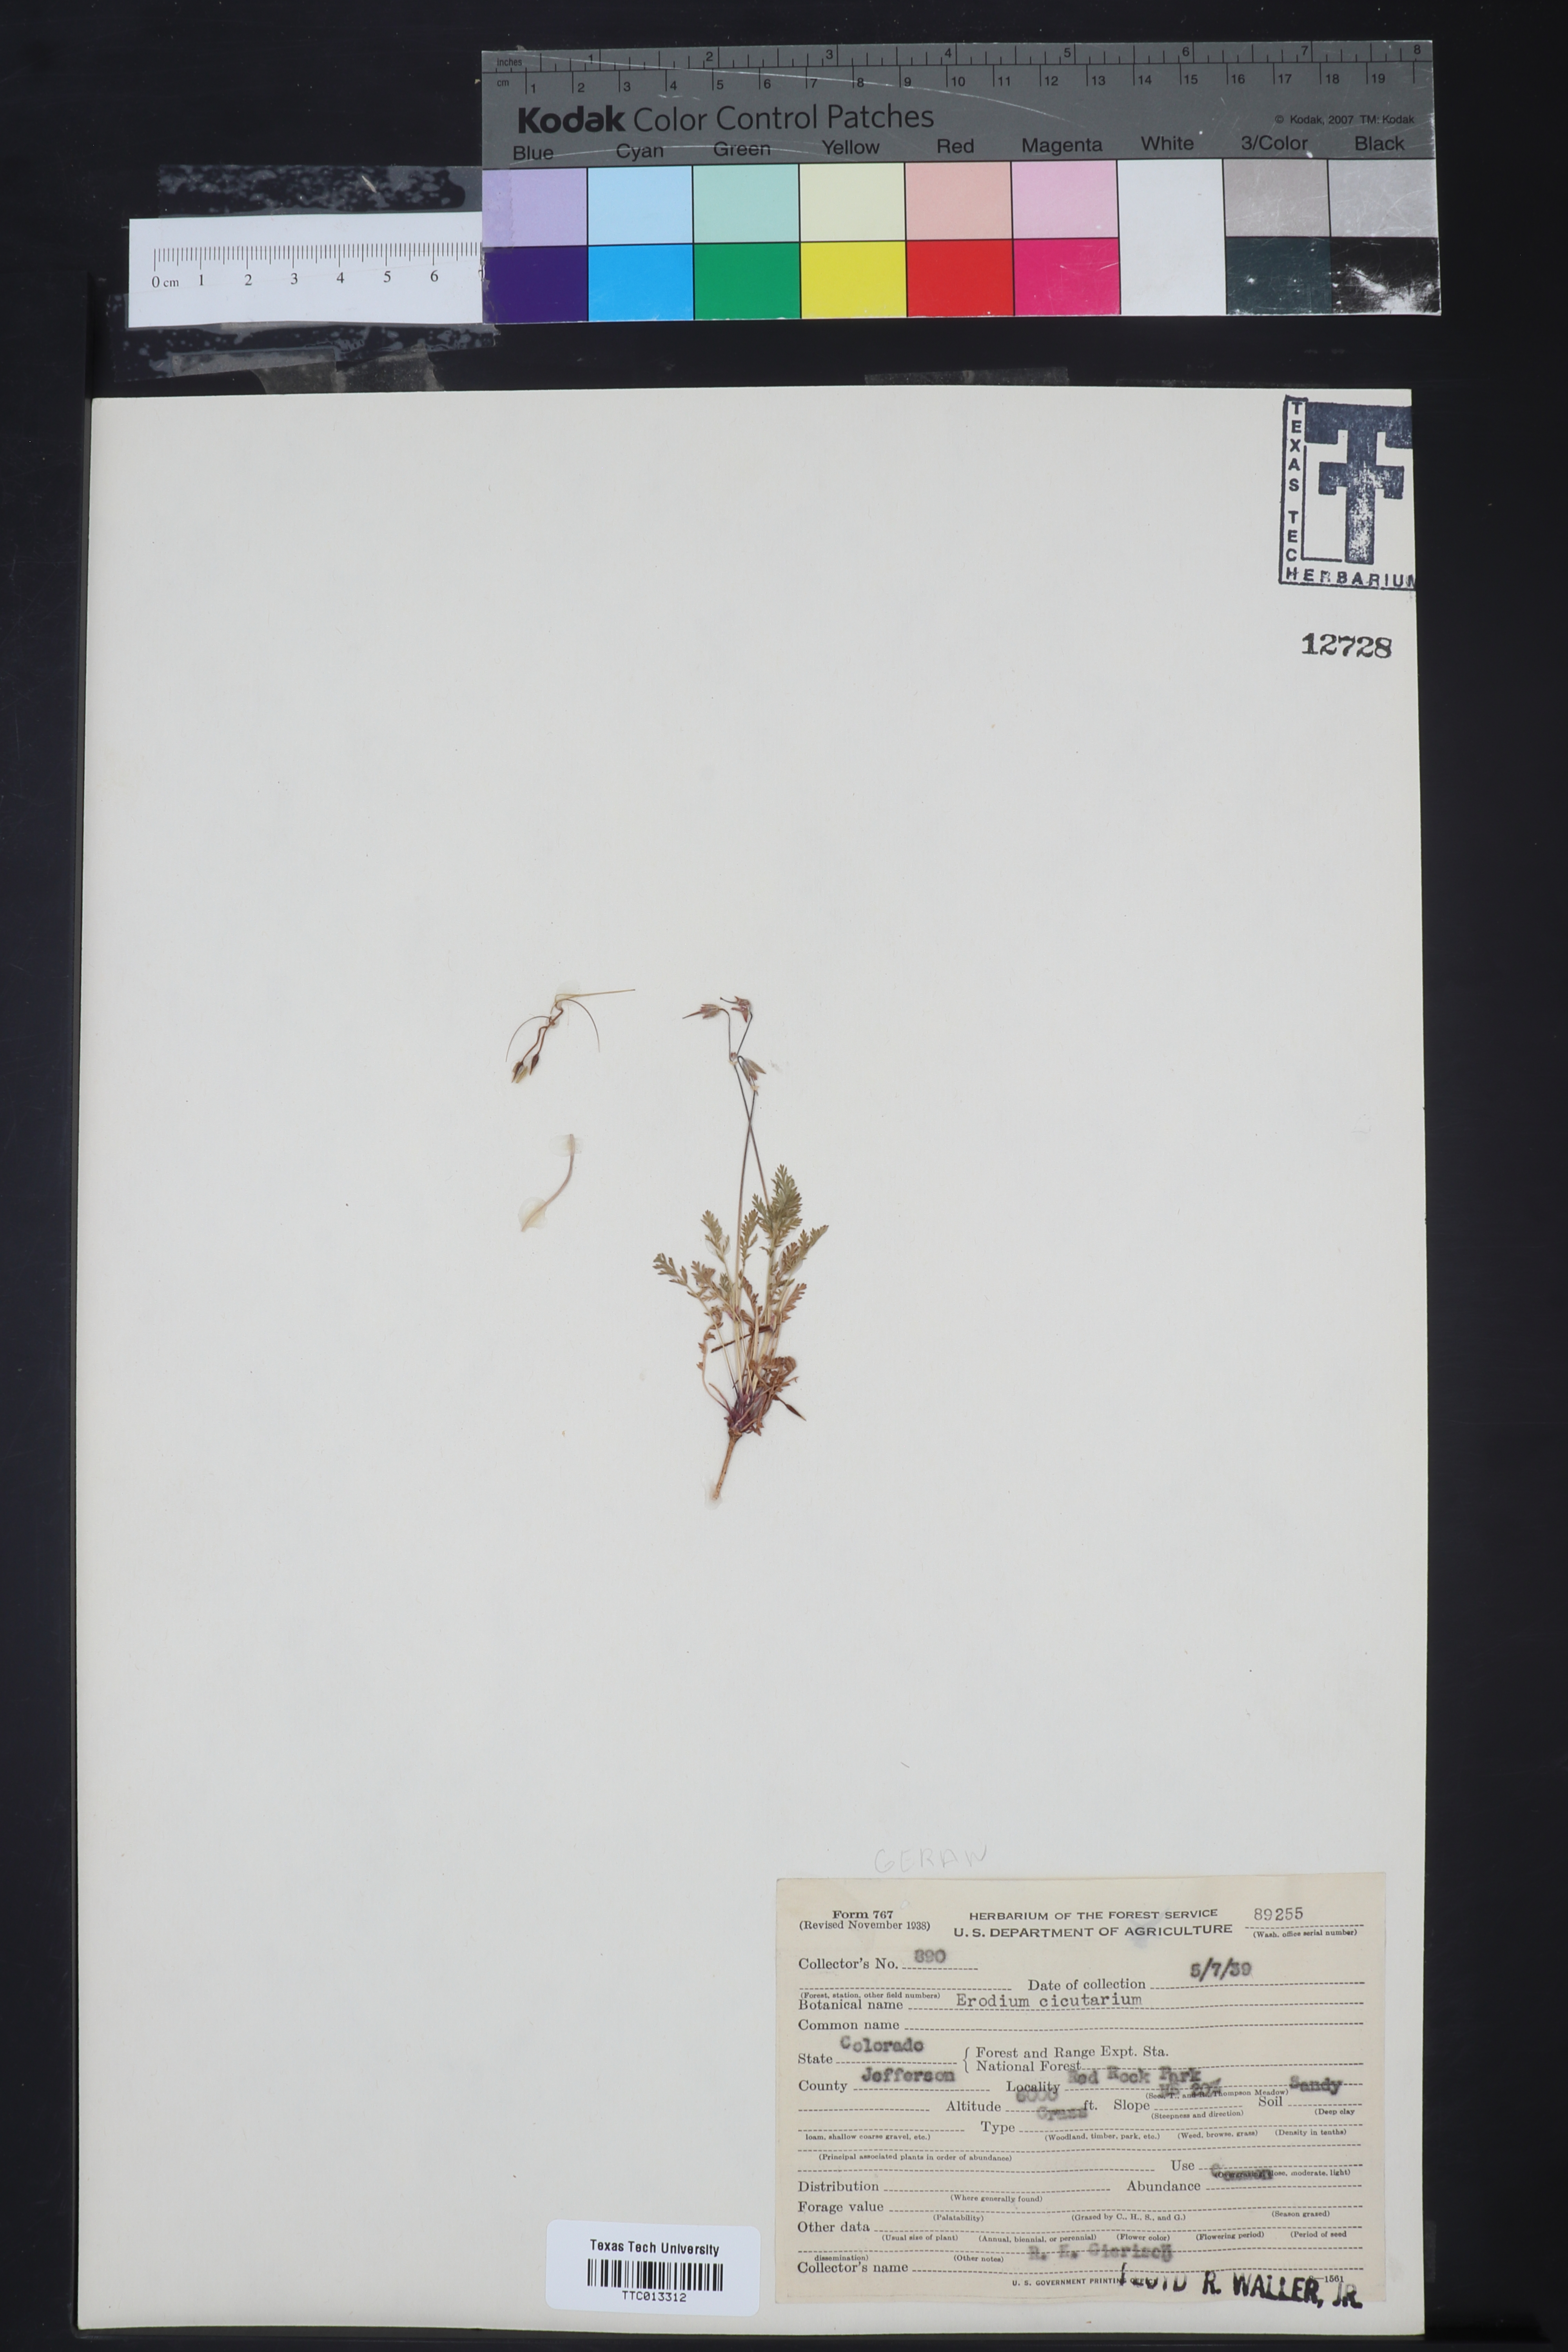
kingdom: Plantae
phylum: Tracheophyta
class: Magnoliopsida
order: Geraniales
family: Geraniaceae
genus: Erodium
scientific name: Erodium cicutarium
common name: Common stork's-bill
